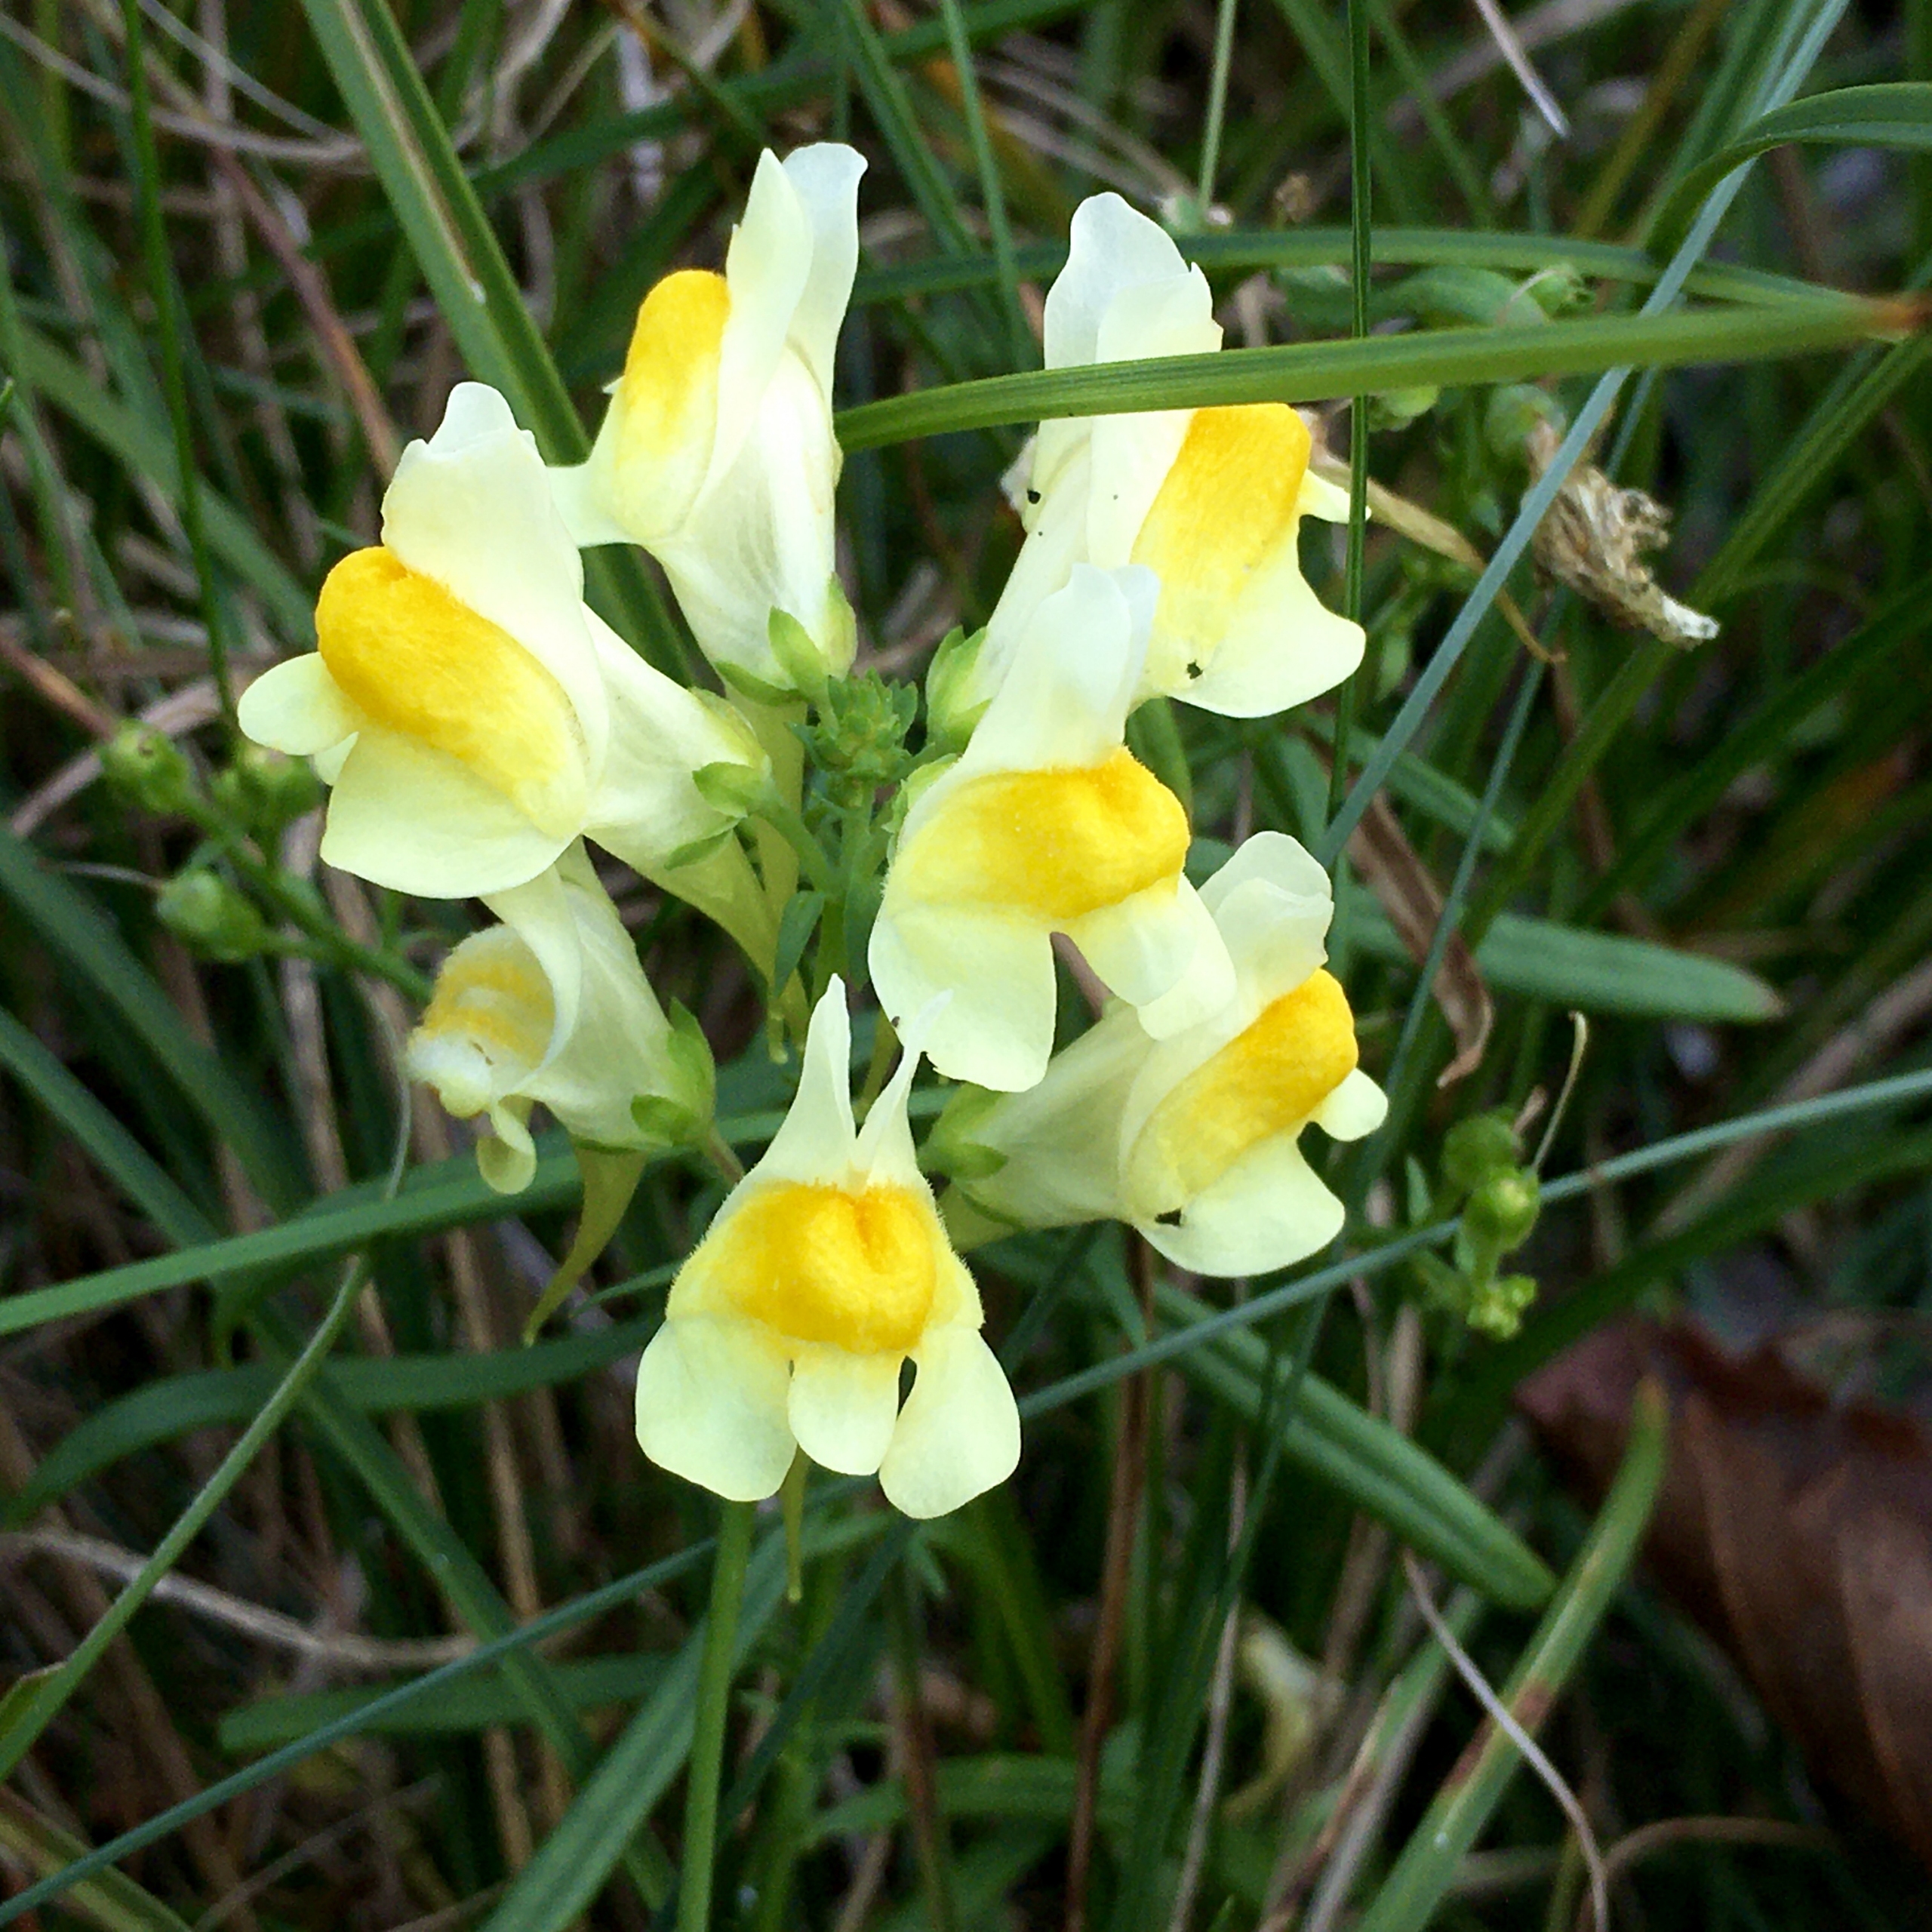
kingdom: Plantae
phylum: Tracheophyta
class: Magnoliopsida
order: Lamiales
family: Plantaginaceae
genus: Linaria
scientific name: Linaria vulgaris
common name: Almindelig torskemund
